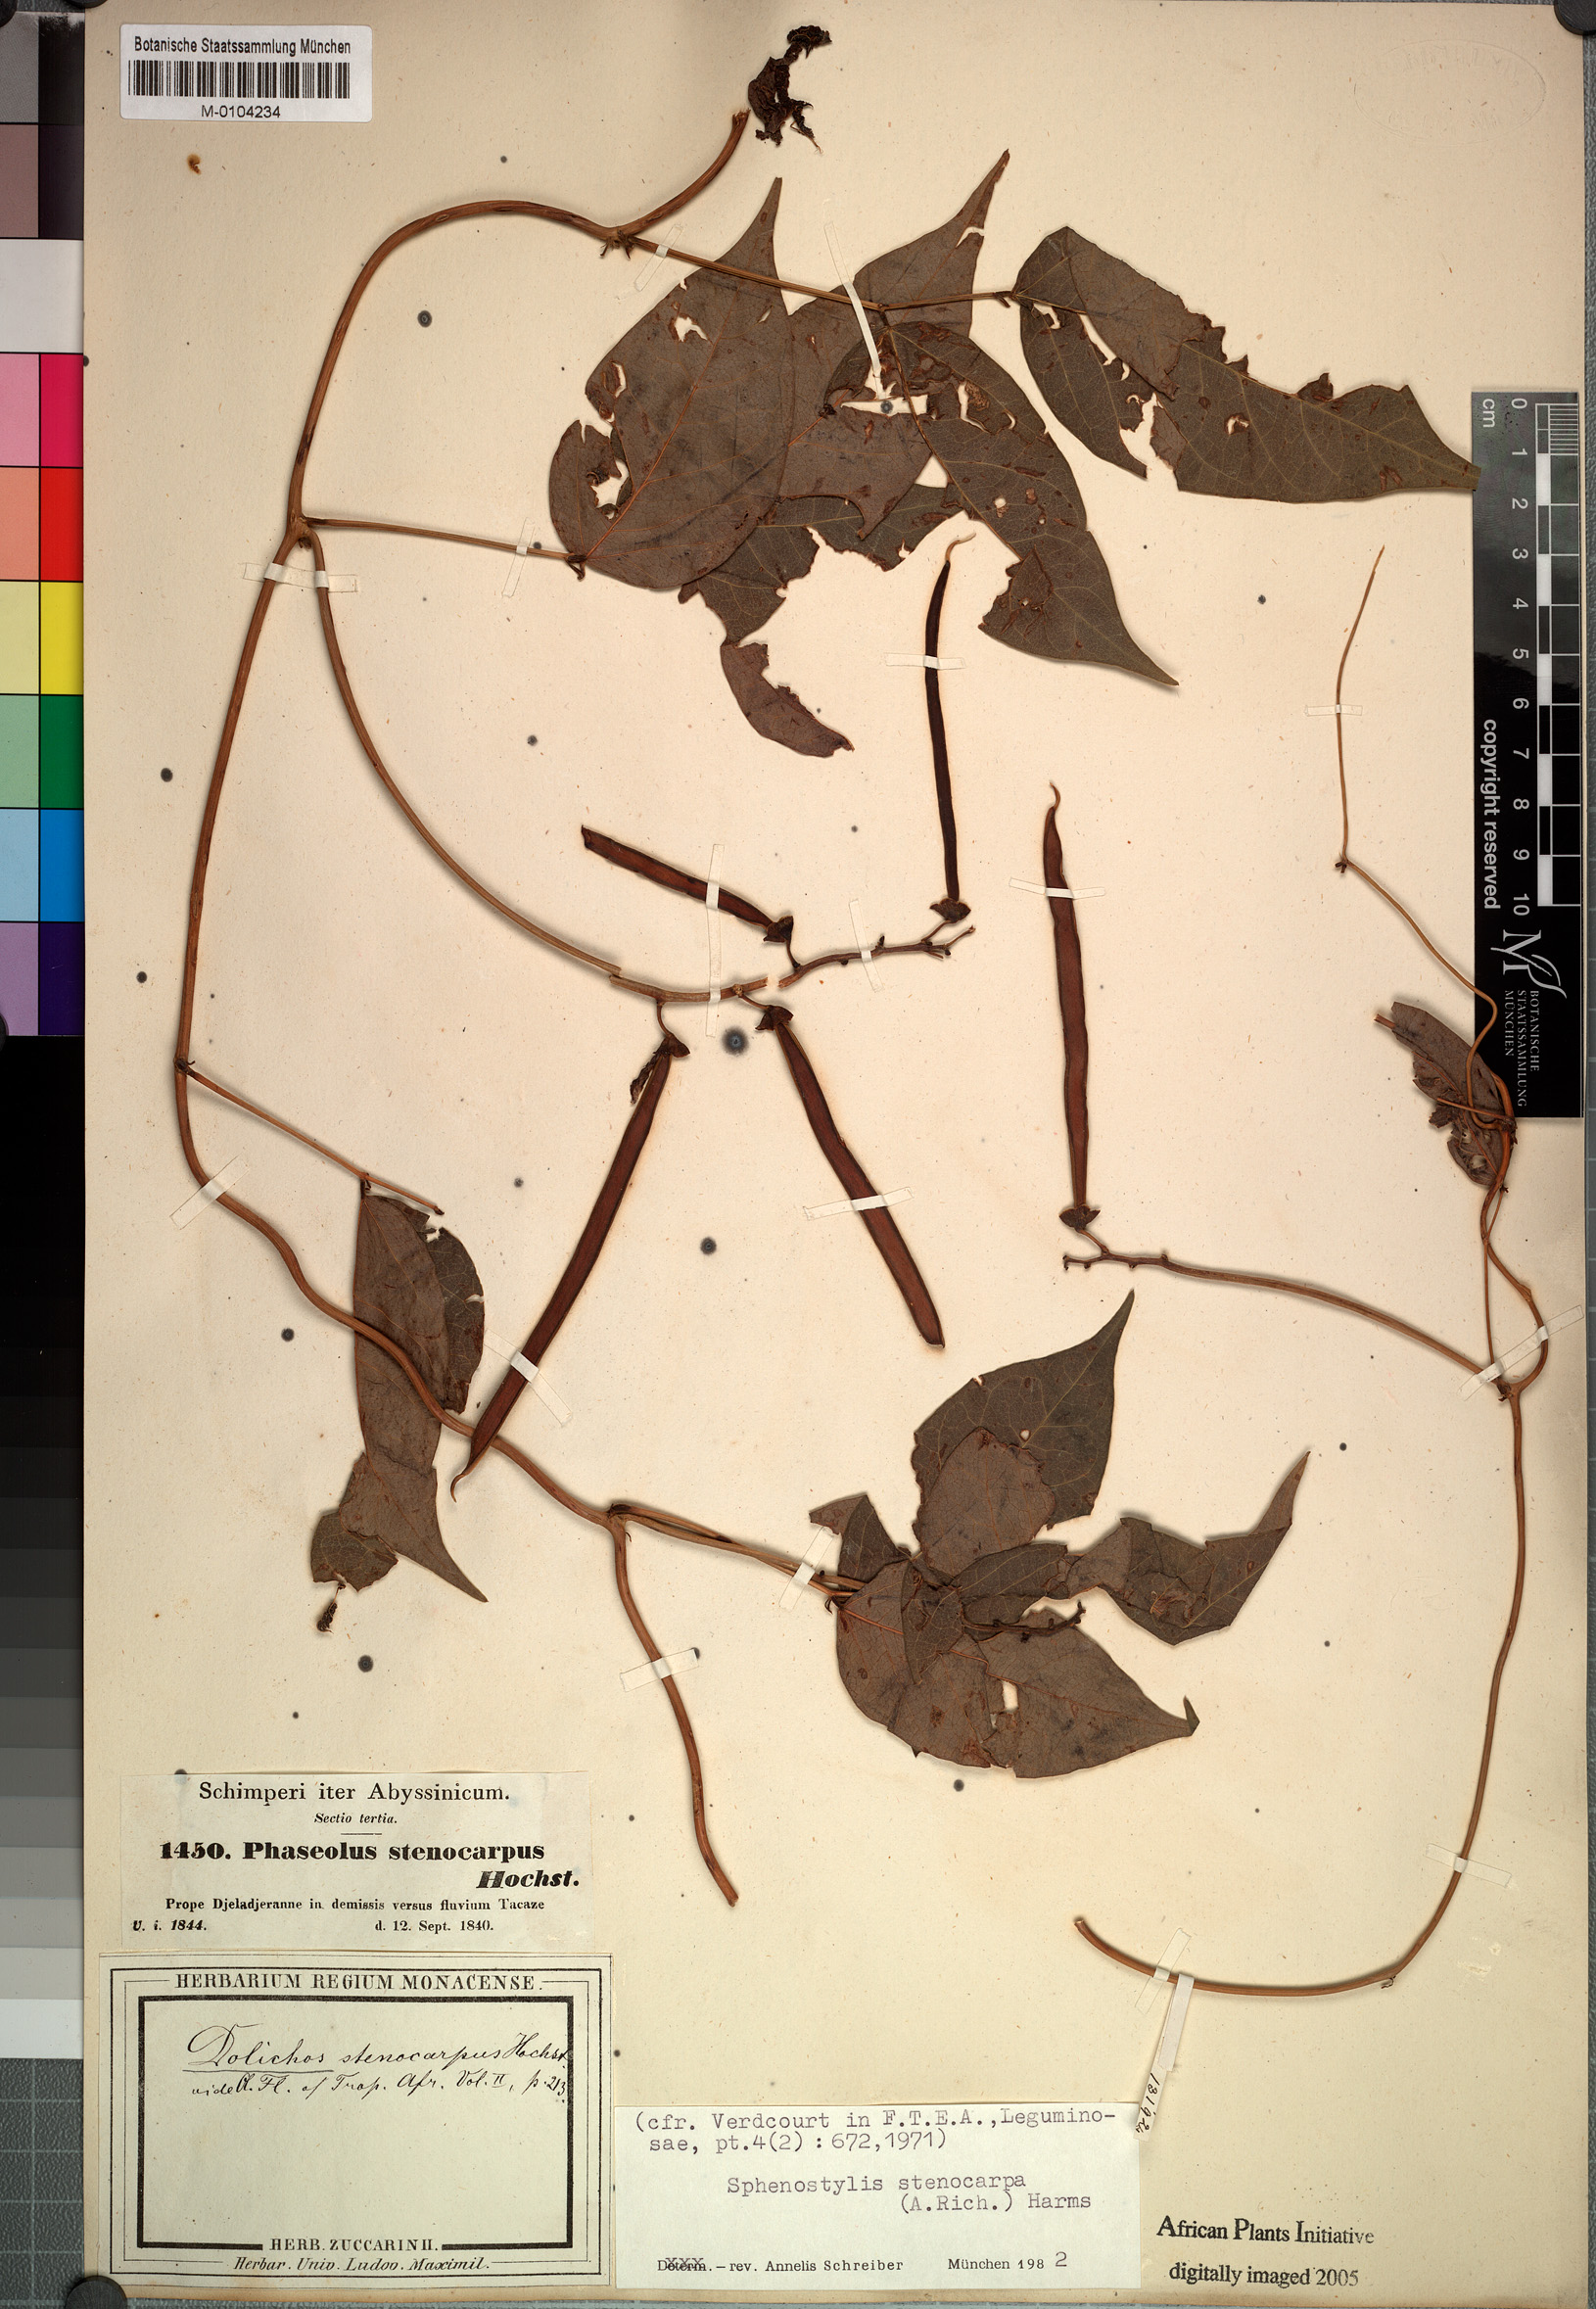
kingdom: Plantae
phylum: Tracheophyta
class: Magnoliopsida
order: Fabales
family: Fabaceae
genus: Sphenostylis
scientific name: Sphenostylis stenocarpa
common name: Yam-pea
